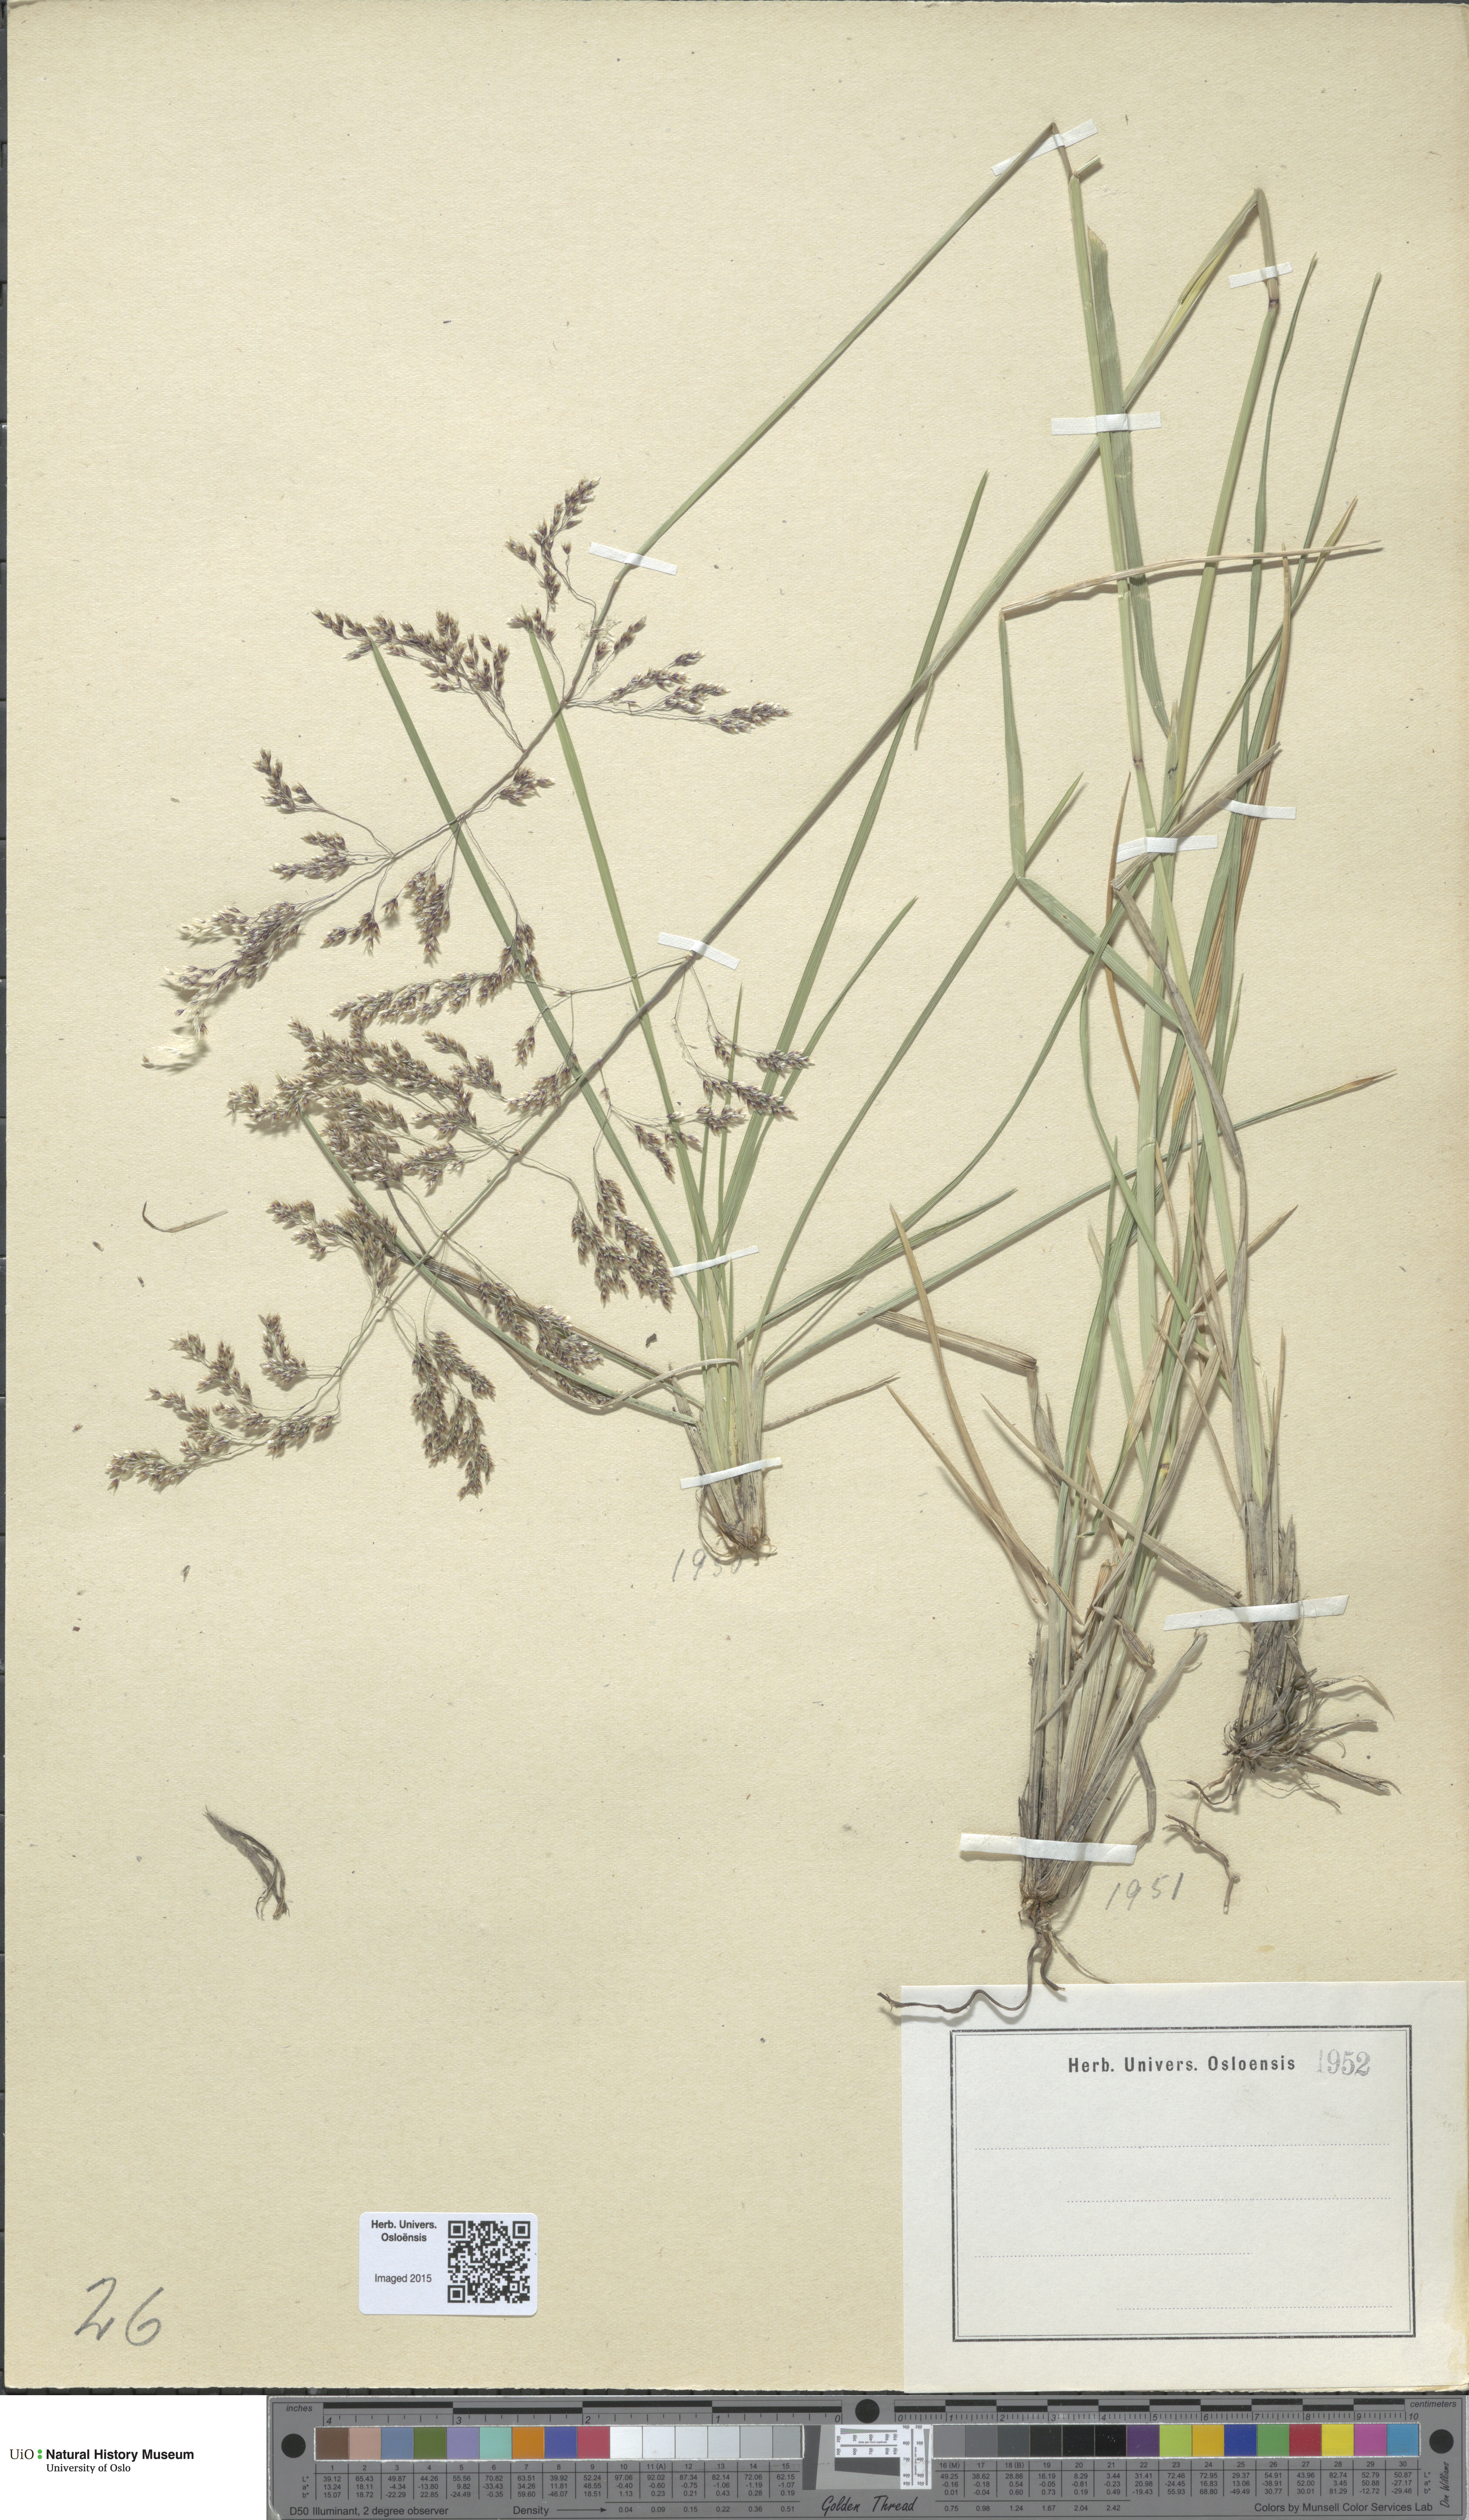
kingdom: Plantae
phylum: Tracheophyta
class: Liliopsida
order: Poales
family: Poaceae
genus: Deschampsia
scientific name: Deschampsia cespitosa
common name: Tufted hair-grass
